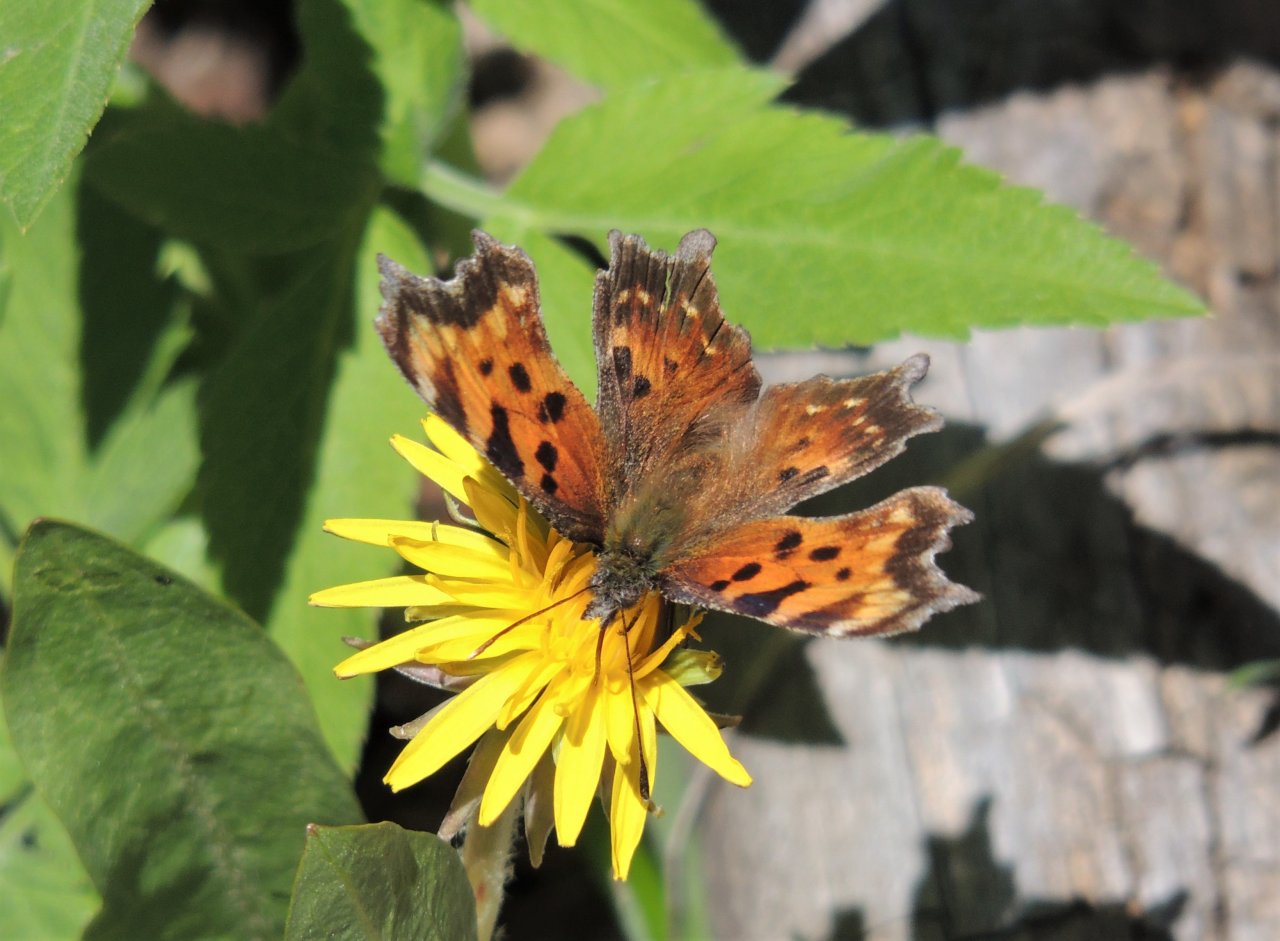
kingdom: Animalia
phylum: Arthropoda
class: Insecta
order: Lepidoptera
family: Nymphalidae
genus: Polygonia
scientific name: Polygonia faunus
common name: Green Comma
